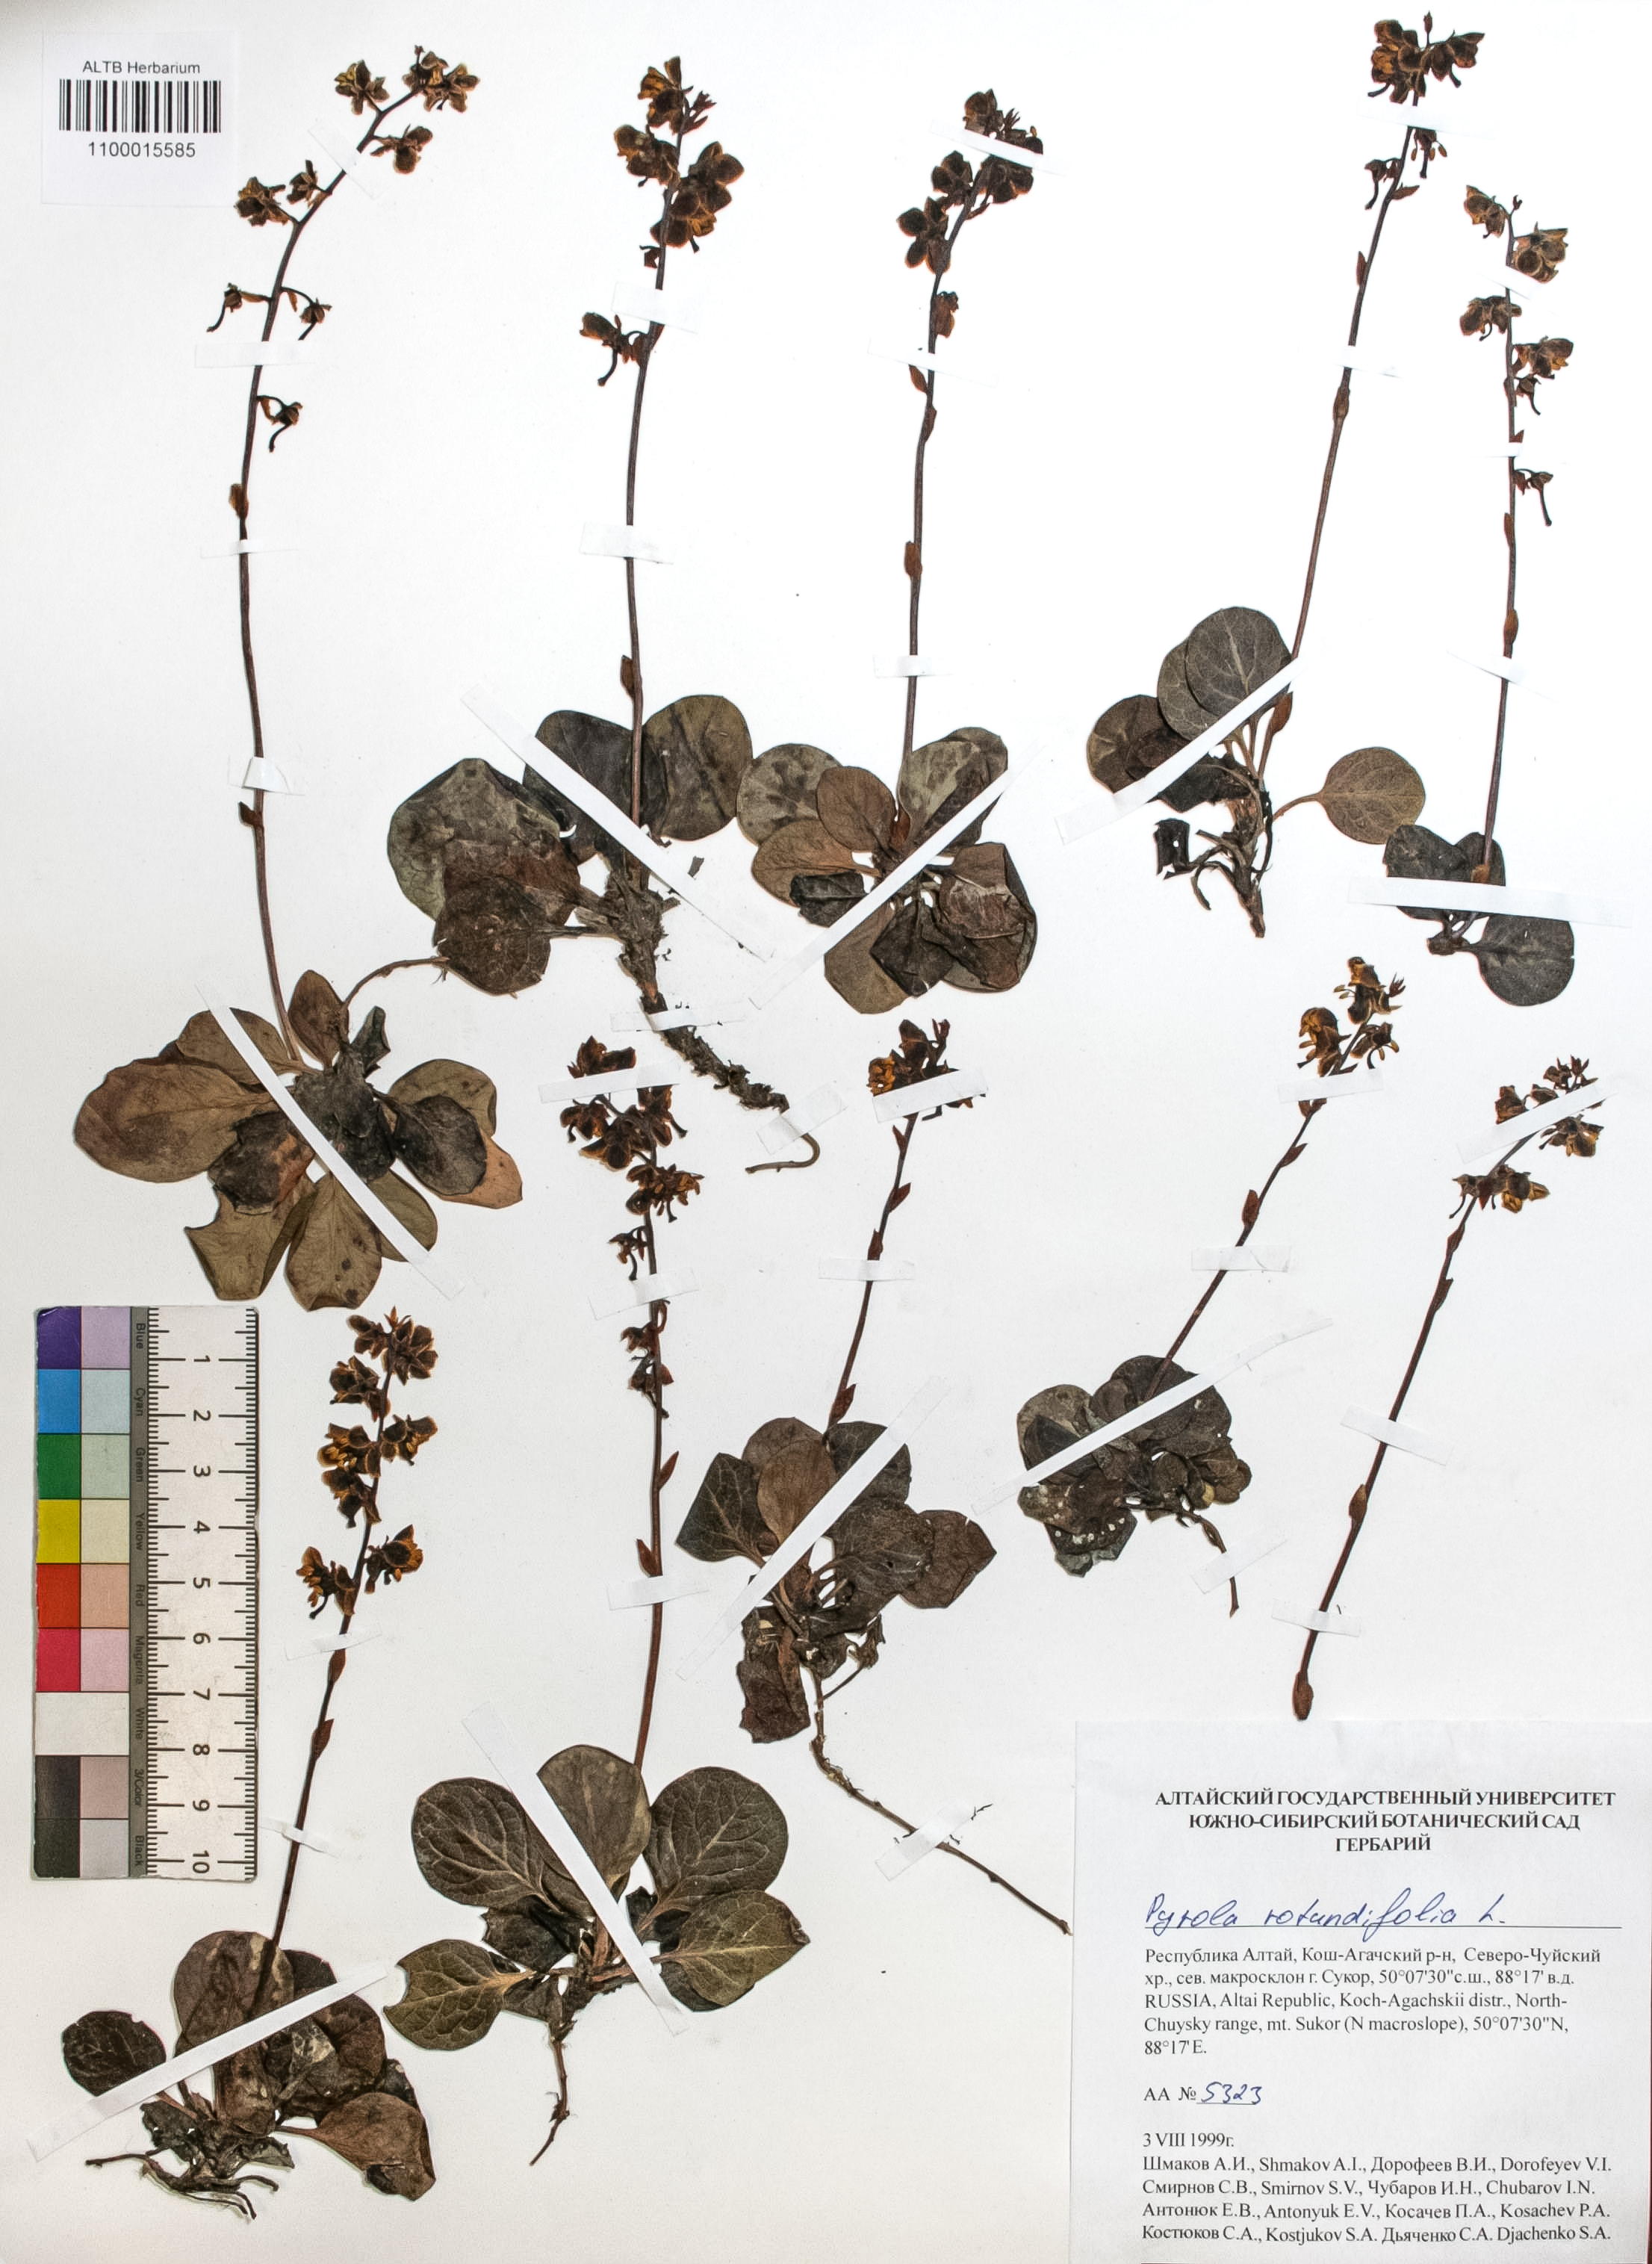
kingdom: Plantae
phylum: Tracheophyta
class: Magnoliopsida
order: Ericales
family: Ericaceae
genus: Pyrola
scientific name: Pyrola rotundifolia
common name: Round-leaved wintergreen
